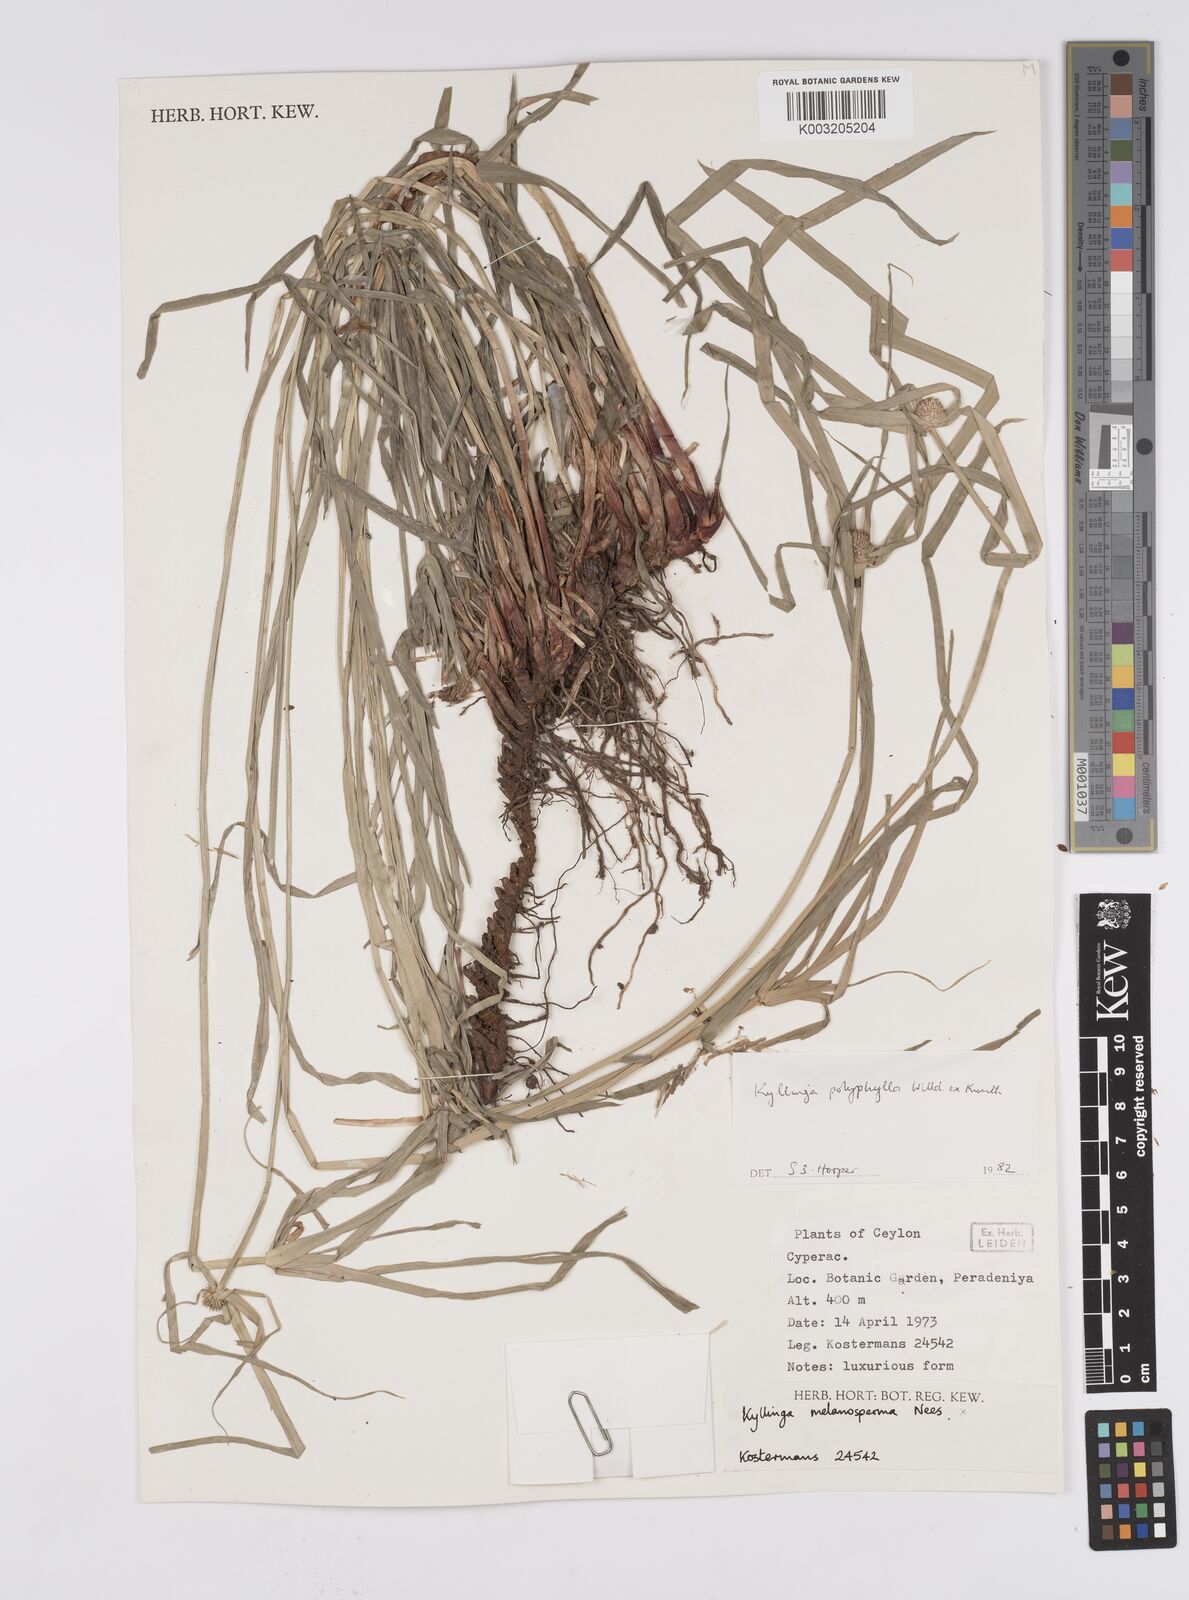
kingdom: Plantae
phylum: Tracheophyta
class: Liliopsida
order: Poales
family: Cyperaceae
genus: Cyperus
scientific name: Cyperus
